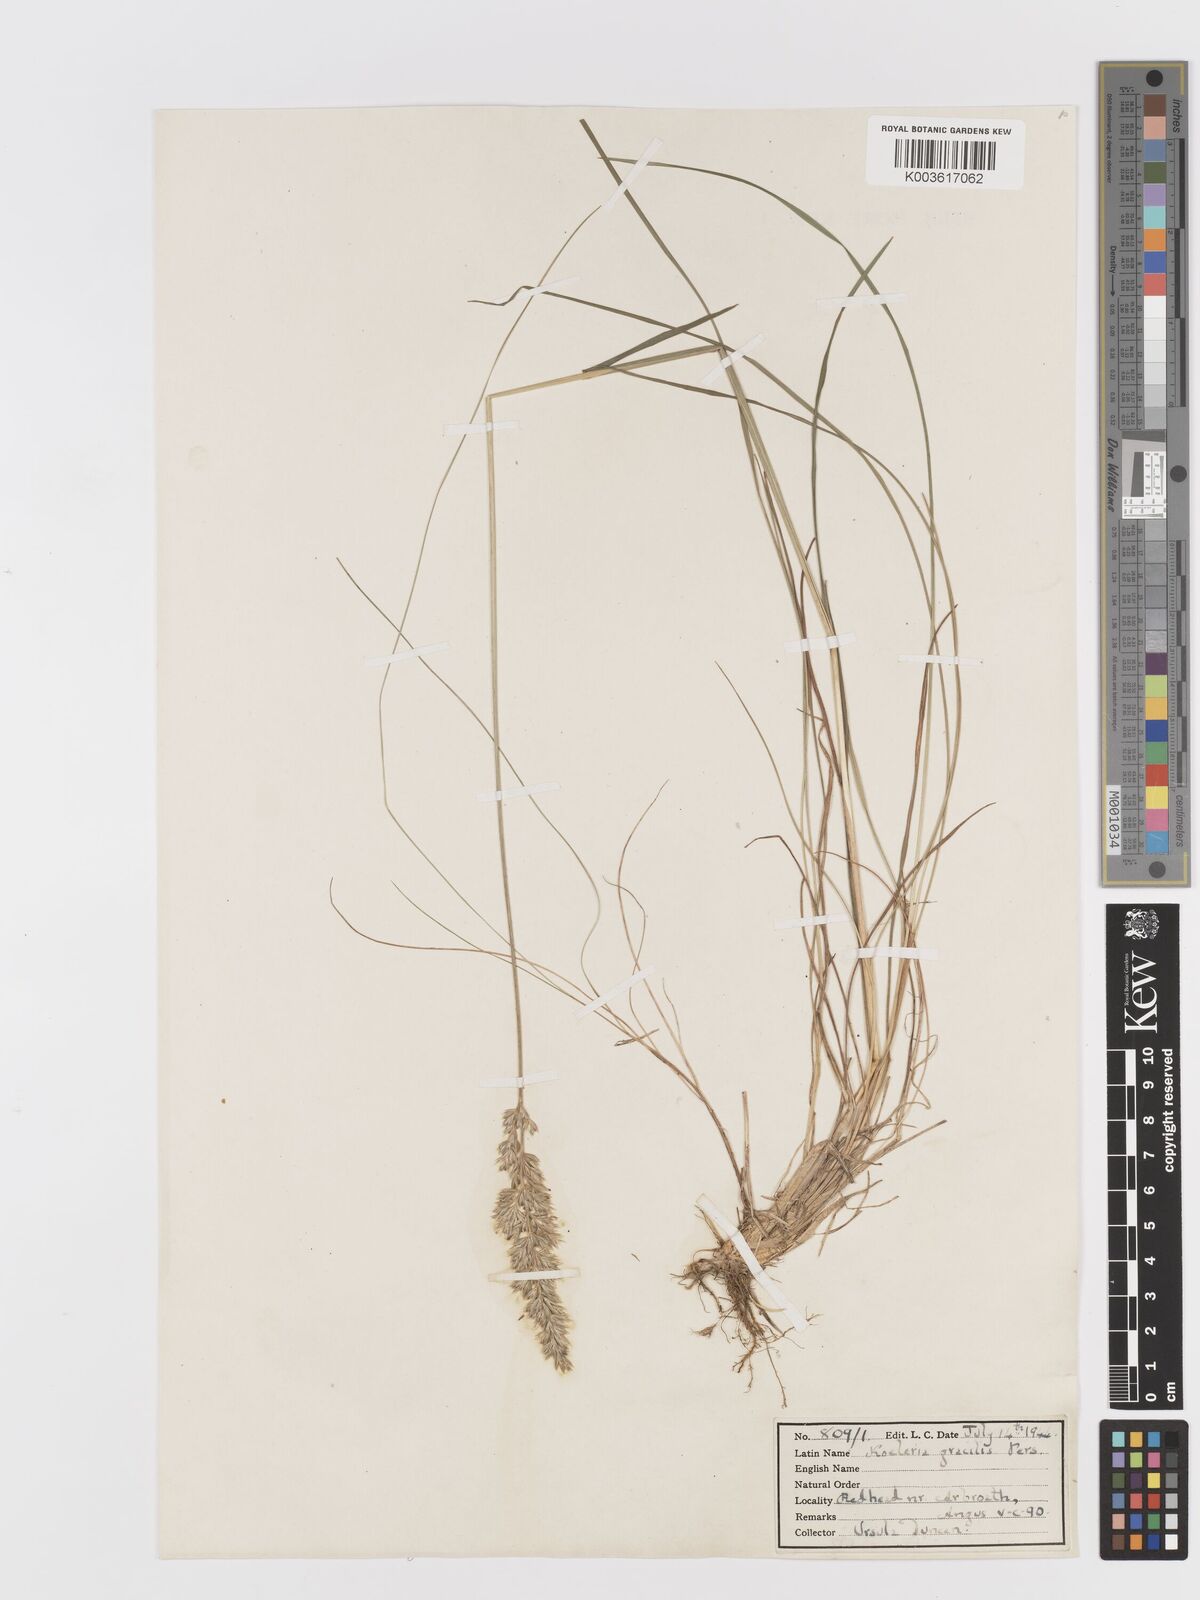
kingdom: Plantae
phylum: Tracheophyta
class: Liliopsida
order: Poales
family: Poaceae
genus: Koeleria
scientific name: Koeleria macrantha
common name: Crested hair-grass
